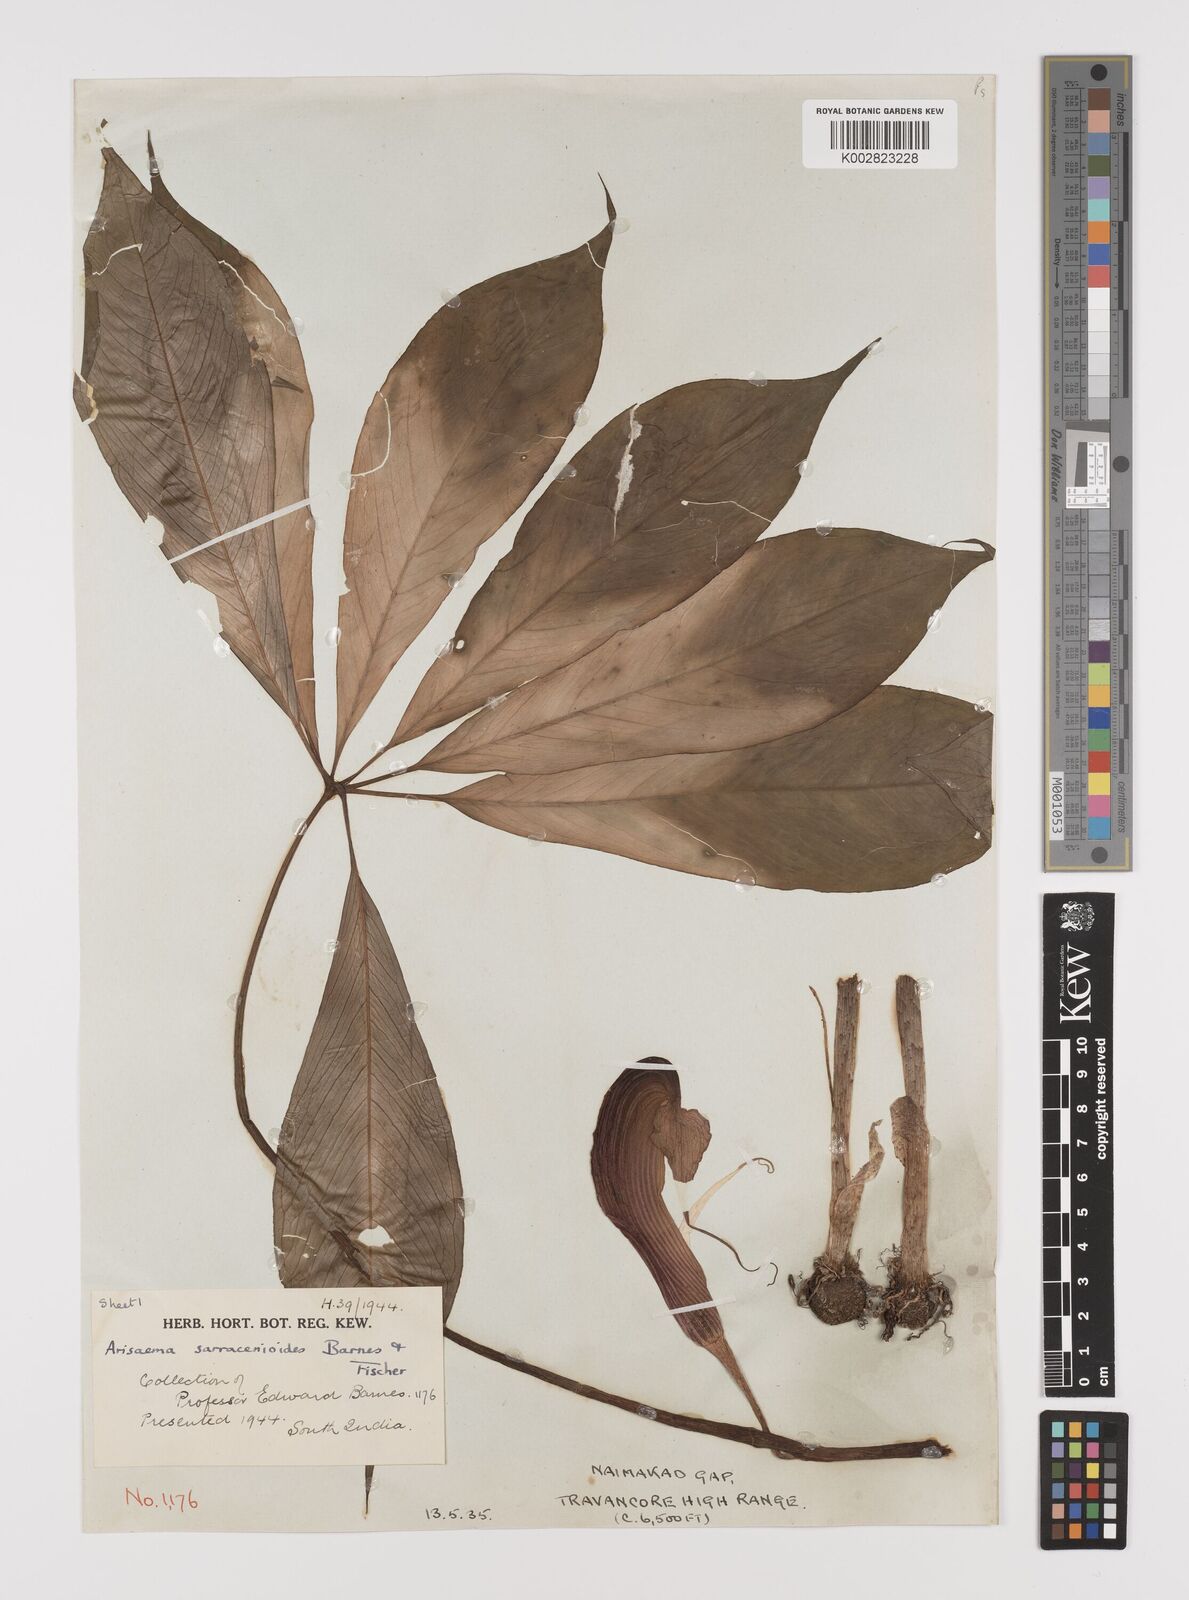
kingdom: Plantae
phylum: Tracheophyta
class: Liliopsida
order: Alismatales
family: Araceae
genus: Arisaema
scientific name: Arisaema sarracenioides
